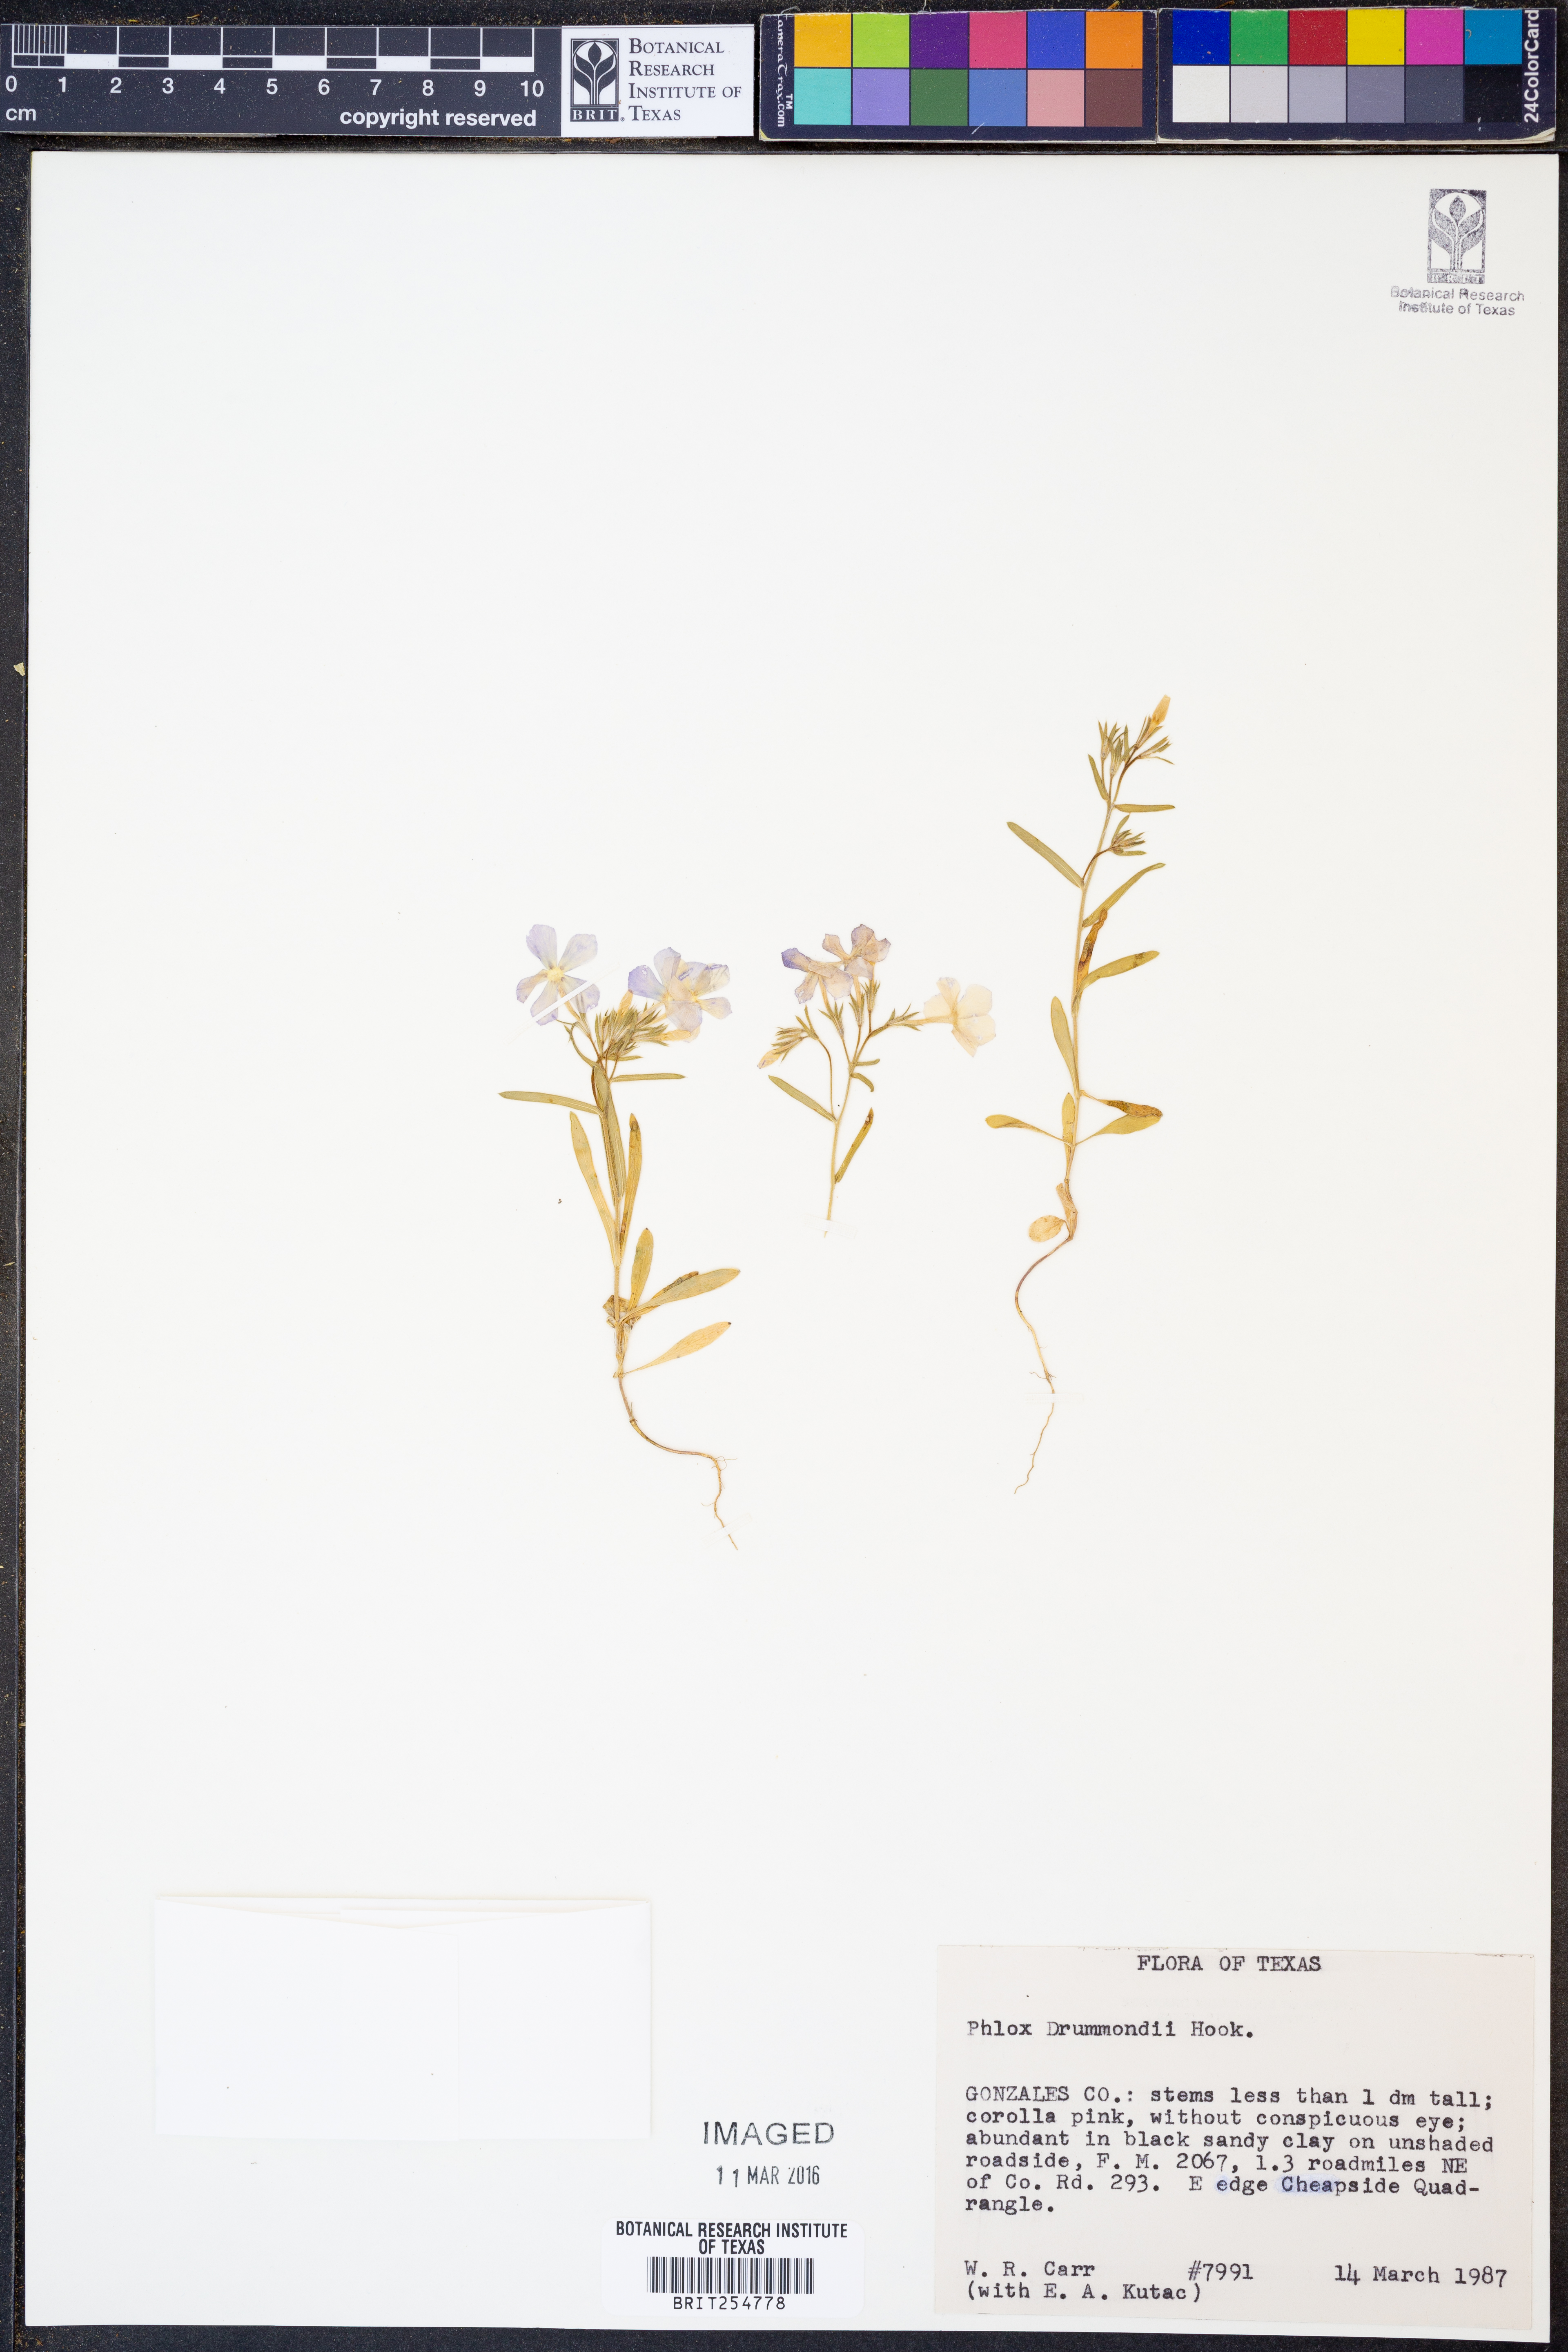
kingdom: Plantae
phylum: Tracheophyta
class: Magnoliopsida
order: Ericales
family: Polemoniaceae
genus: Phlox
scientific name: Phlox drummondii
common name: Drummond's phlox
